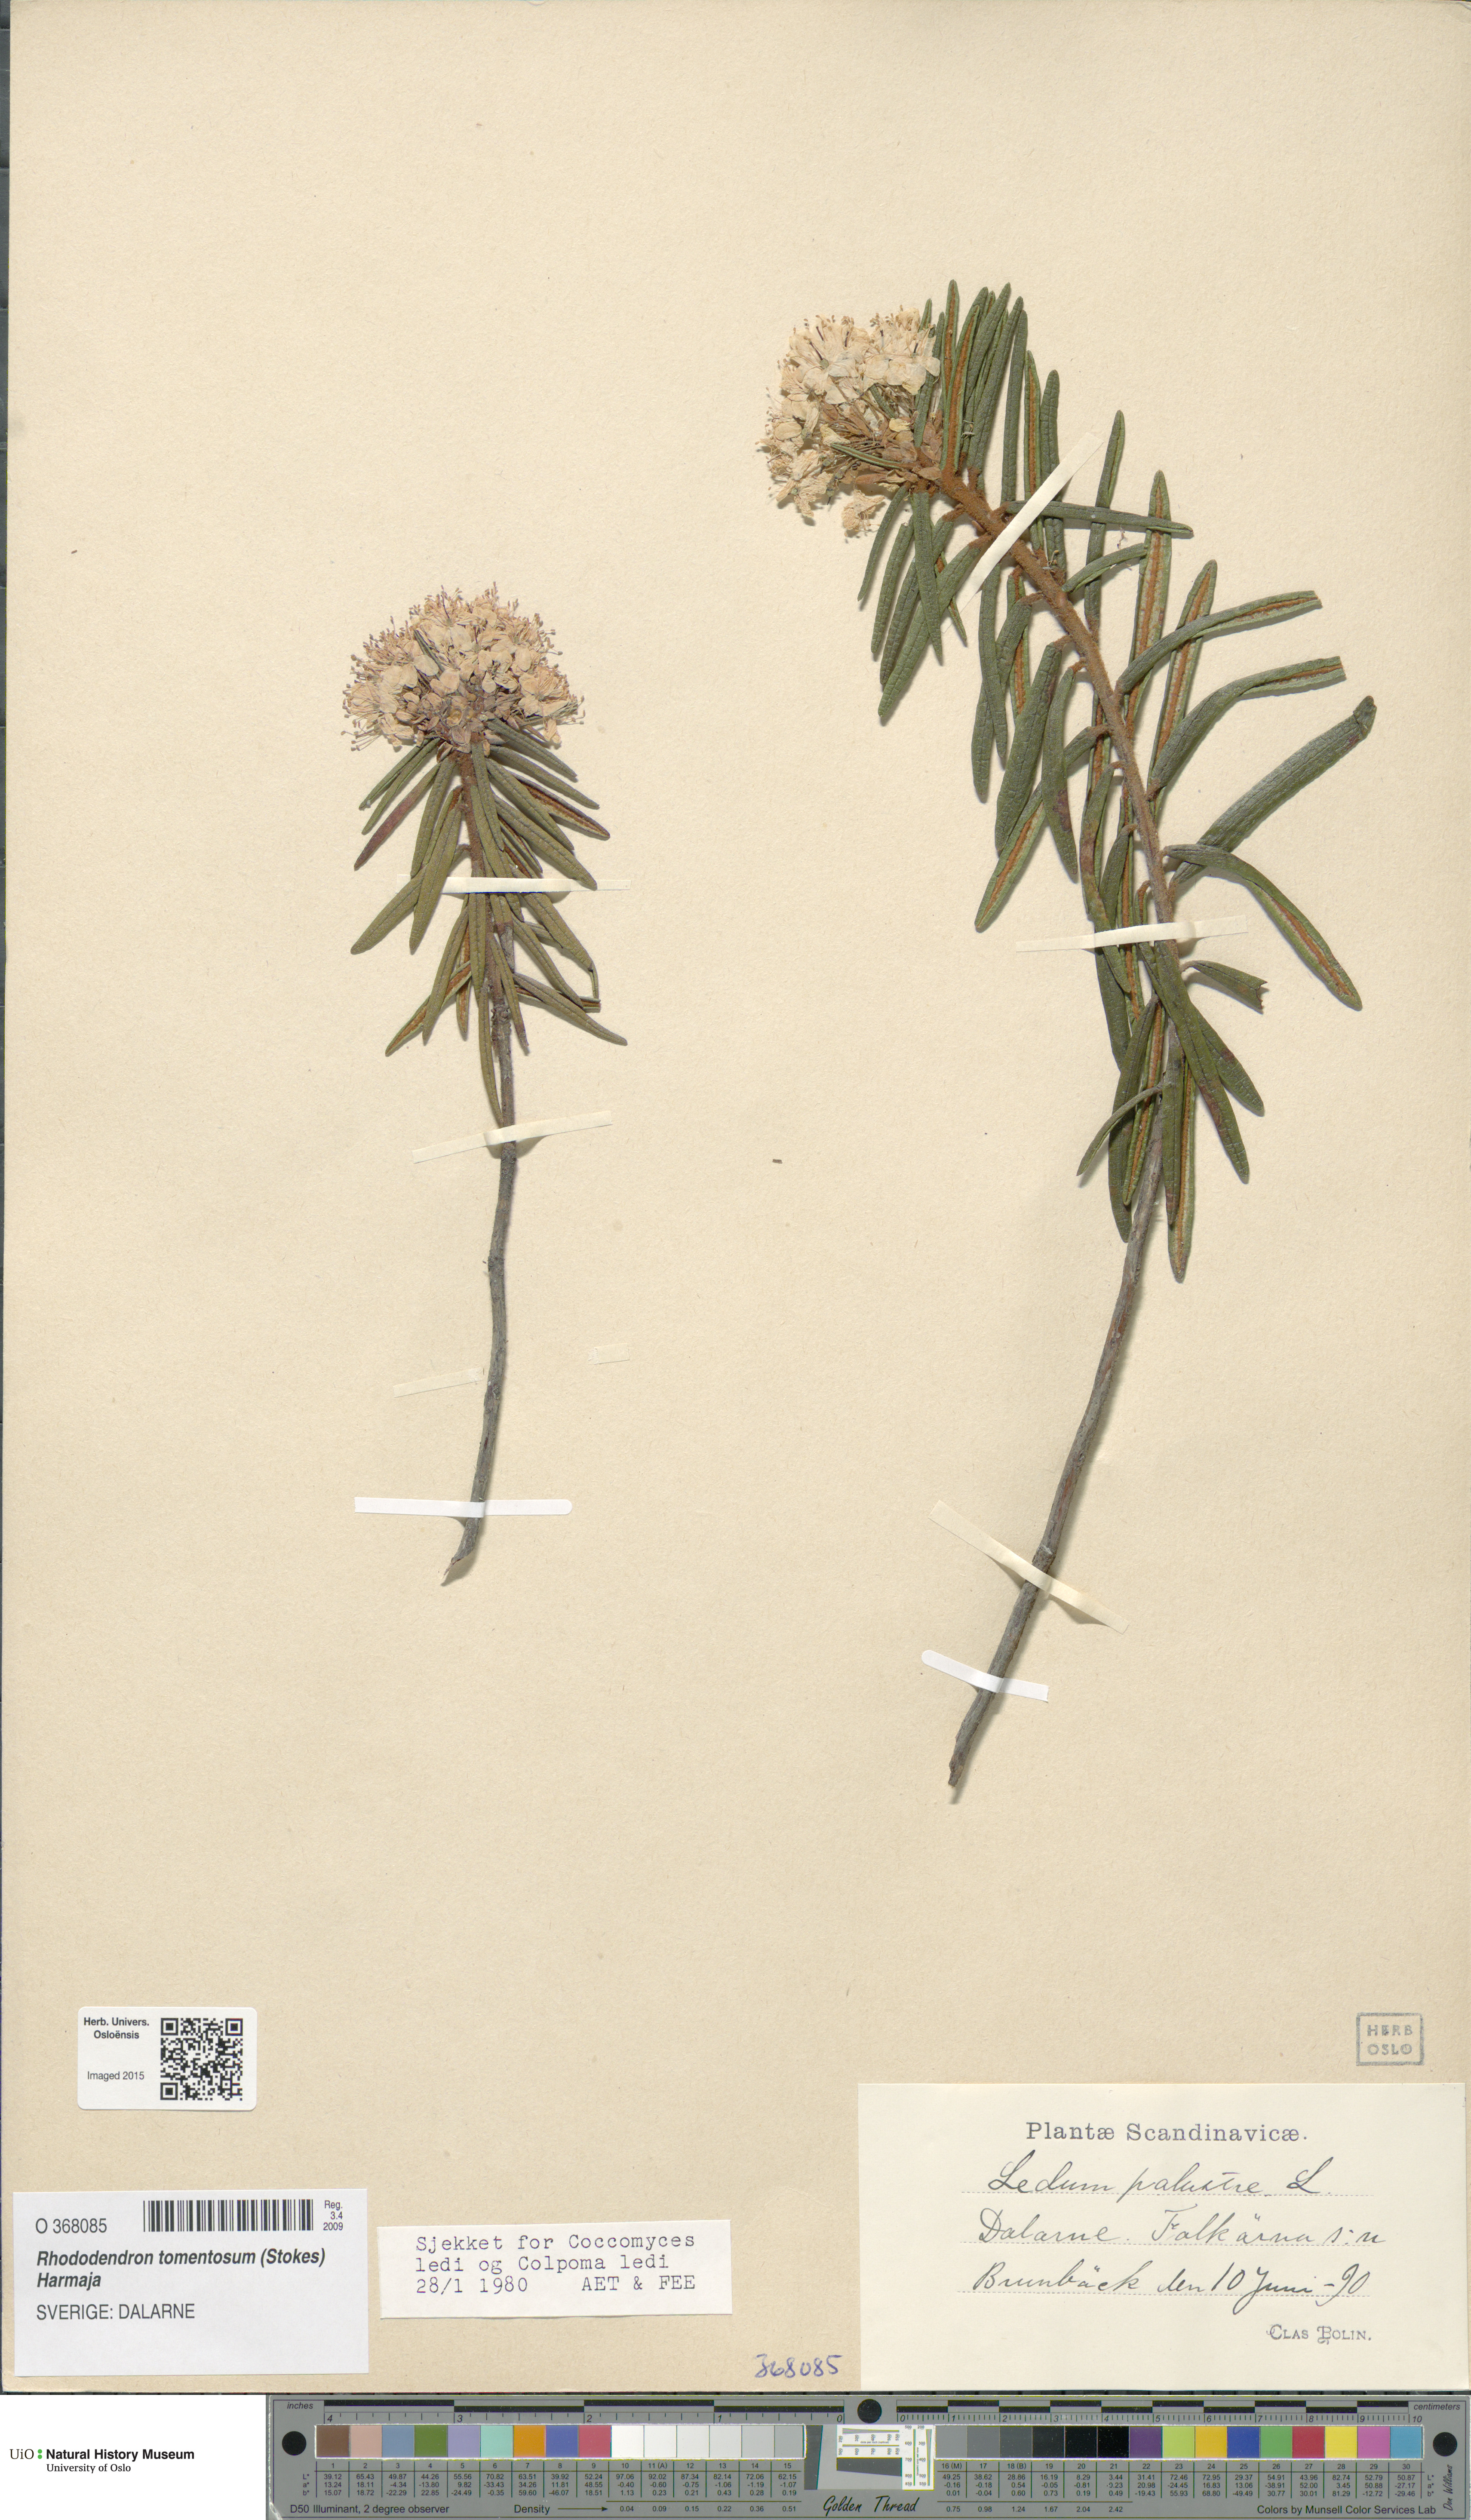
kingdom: Plantae
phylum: Tracheophyta
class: Magnoliopsida
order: Ericales
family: Ericaceae
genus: Rhododendron
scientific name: Rhododendron tomentosum
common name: Marsh labrador tea
